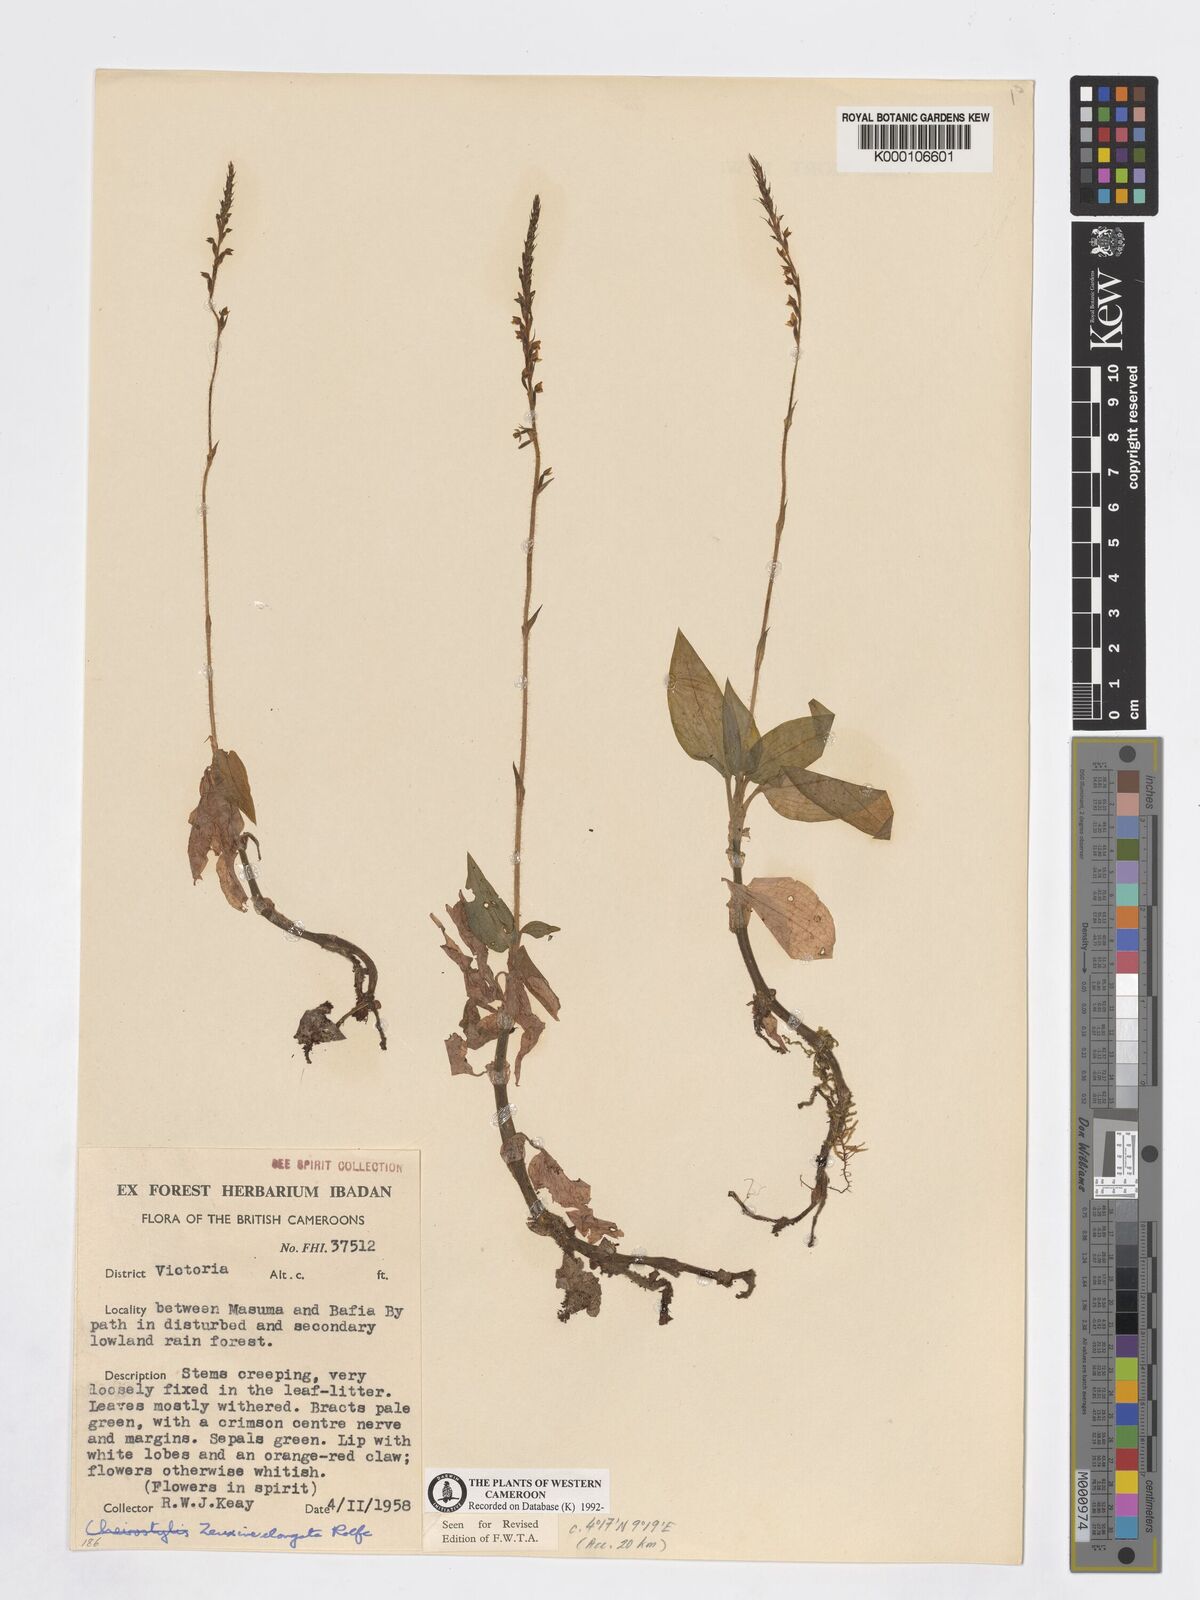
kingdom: Plantae
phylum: Tracheophyta
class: Liliopsida
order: Asparagales
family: Orchidaceae
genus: Zeuxine
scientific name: Zeuxine elongata
